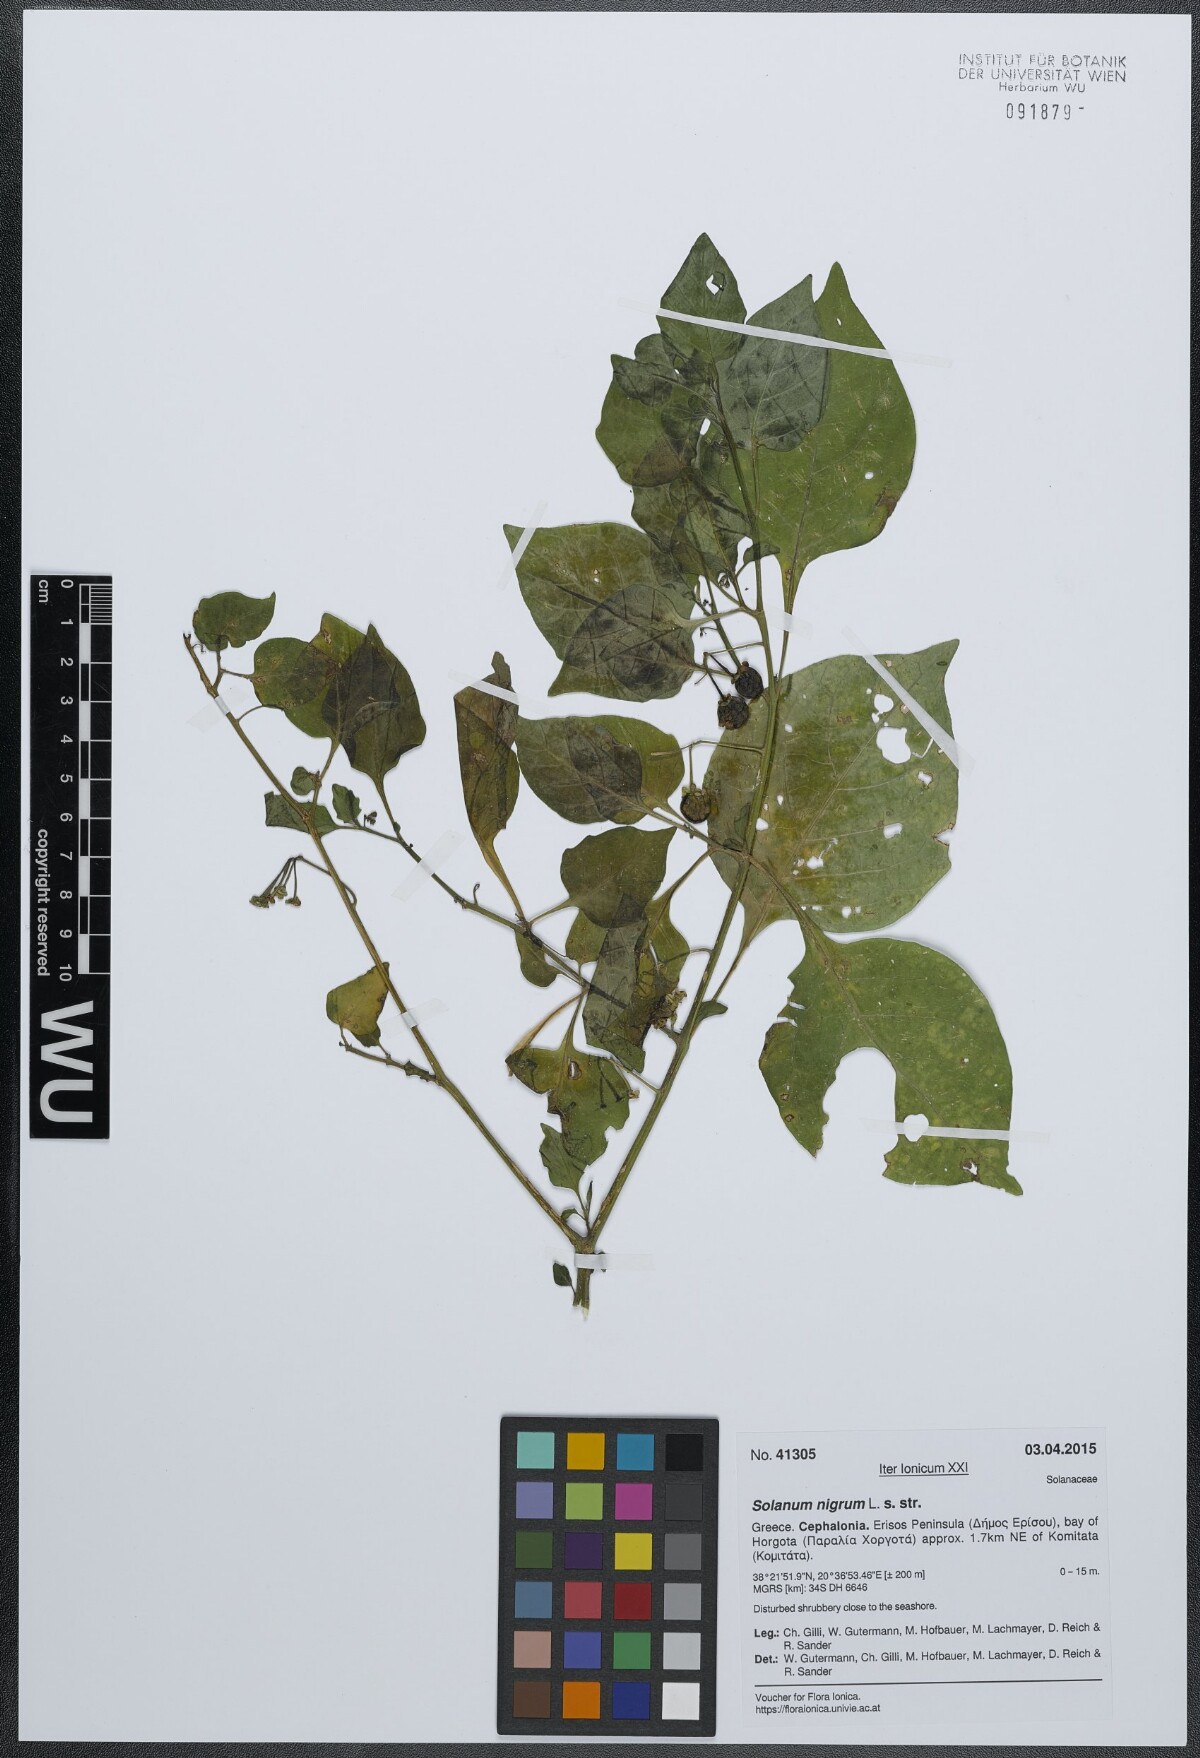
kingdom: Plantae
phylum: Tracheophyta
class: Magnoliopsida
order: Solanales
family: Solanaceae
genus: Solanum
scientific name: Solanum nigrum
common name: Black nightshade
